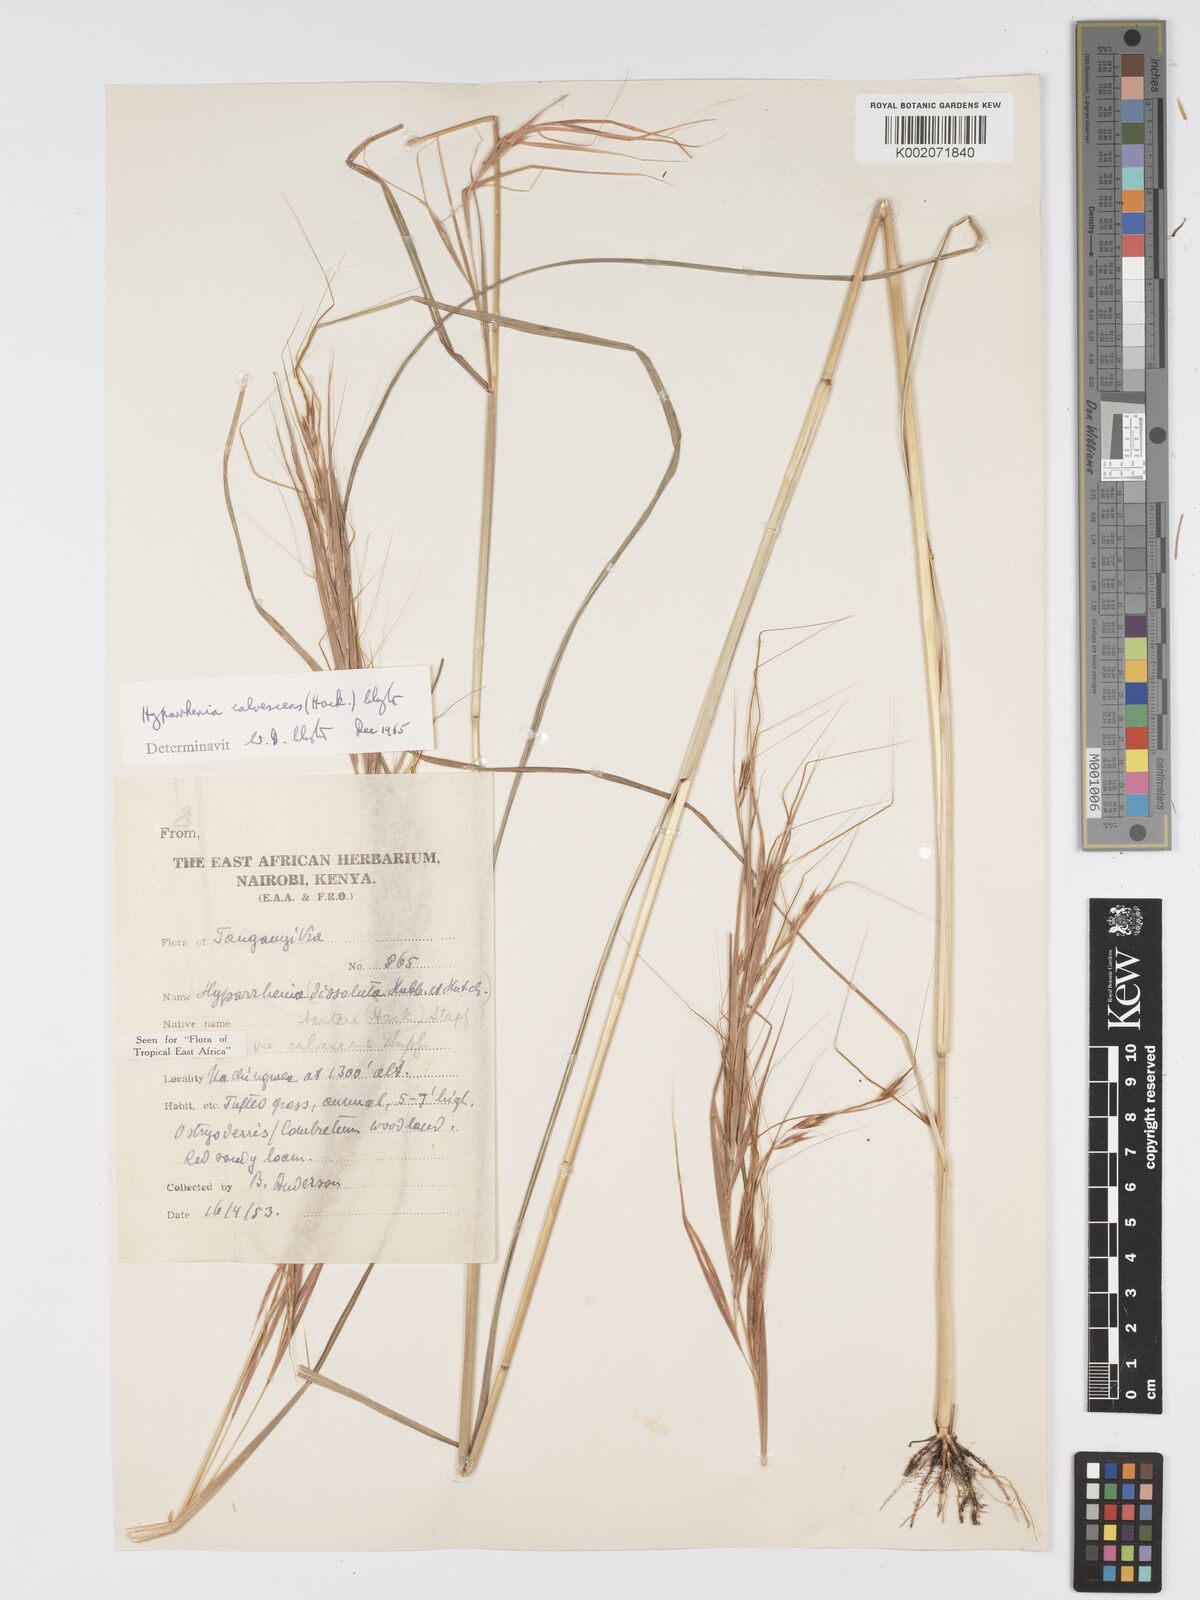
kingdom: Plantae
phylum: Tracheophyta
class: Liliopsida
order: Poales
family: Poaceae
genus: Hyparrhenia
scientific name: Hyparrhenia figariana
